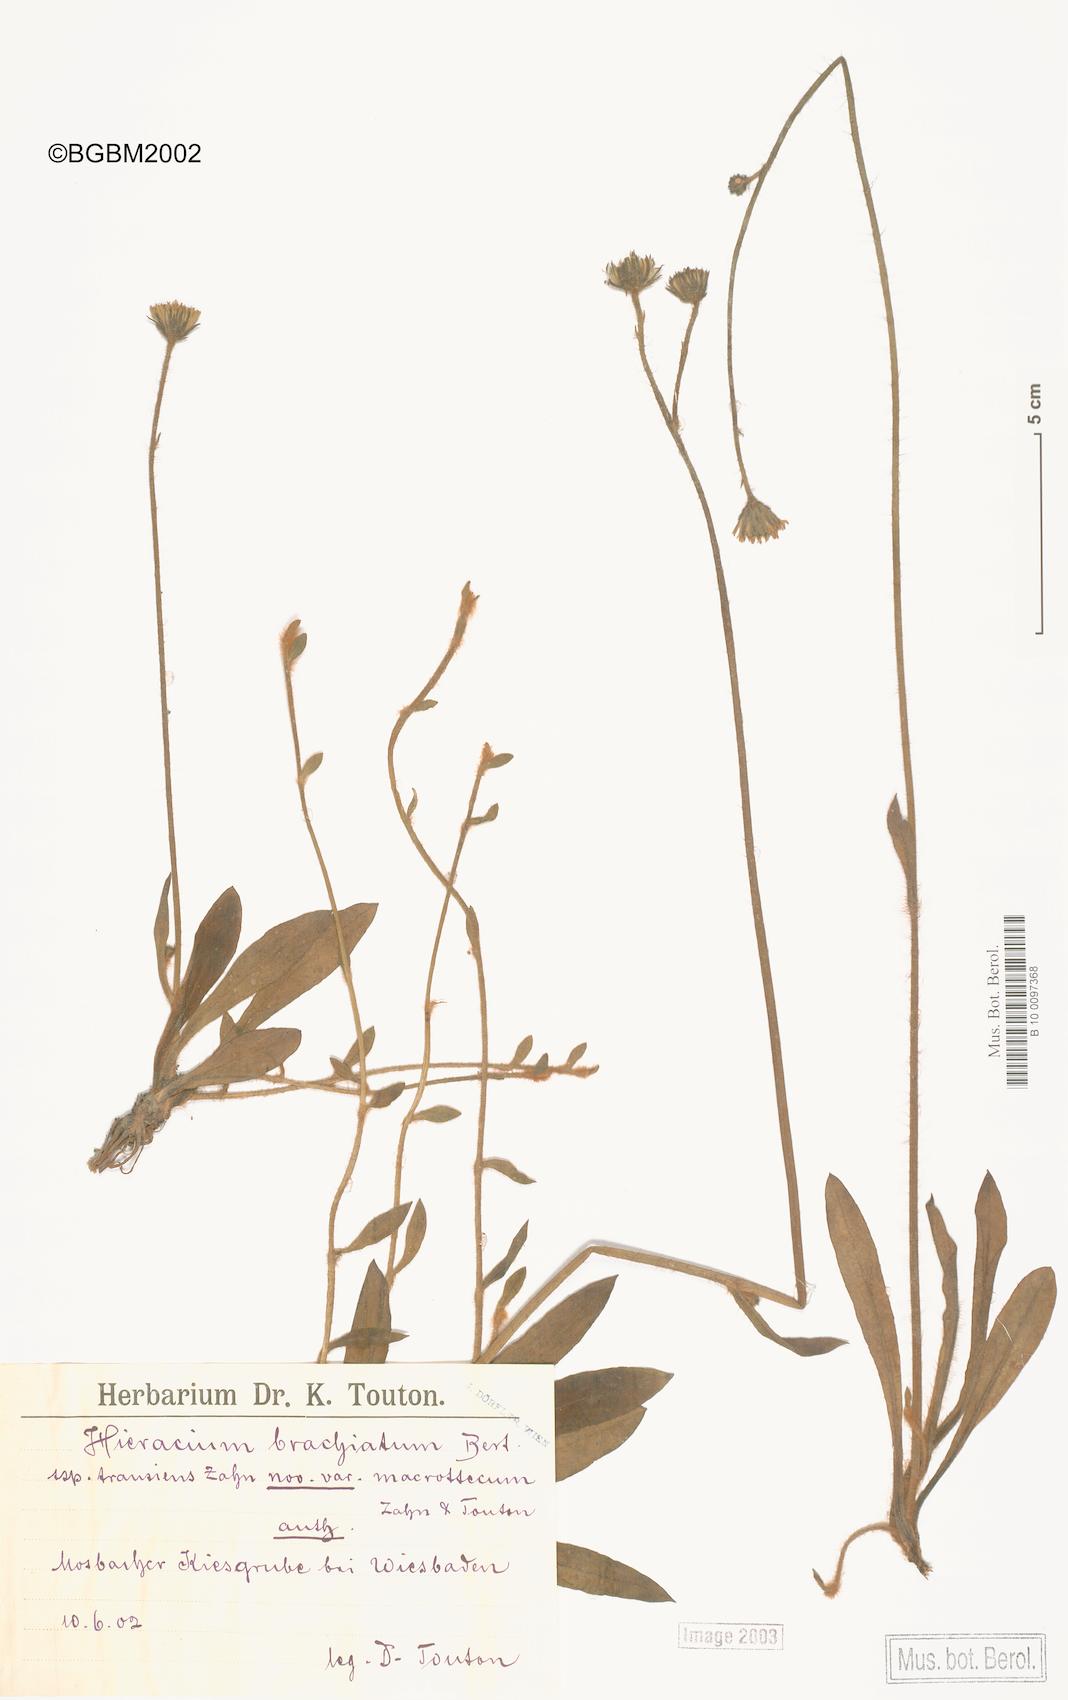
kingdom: Plantae
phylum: Tracheophyta
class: Magnoliopsida
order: Asterales
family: Asteraceae
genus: Pilosella
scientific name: Pilosella acutifolia
